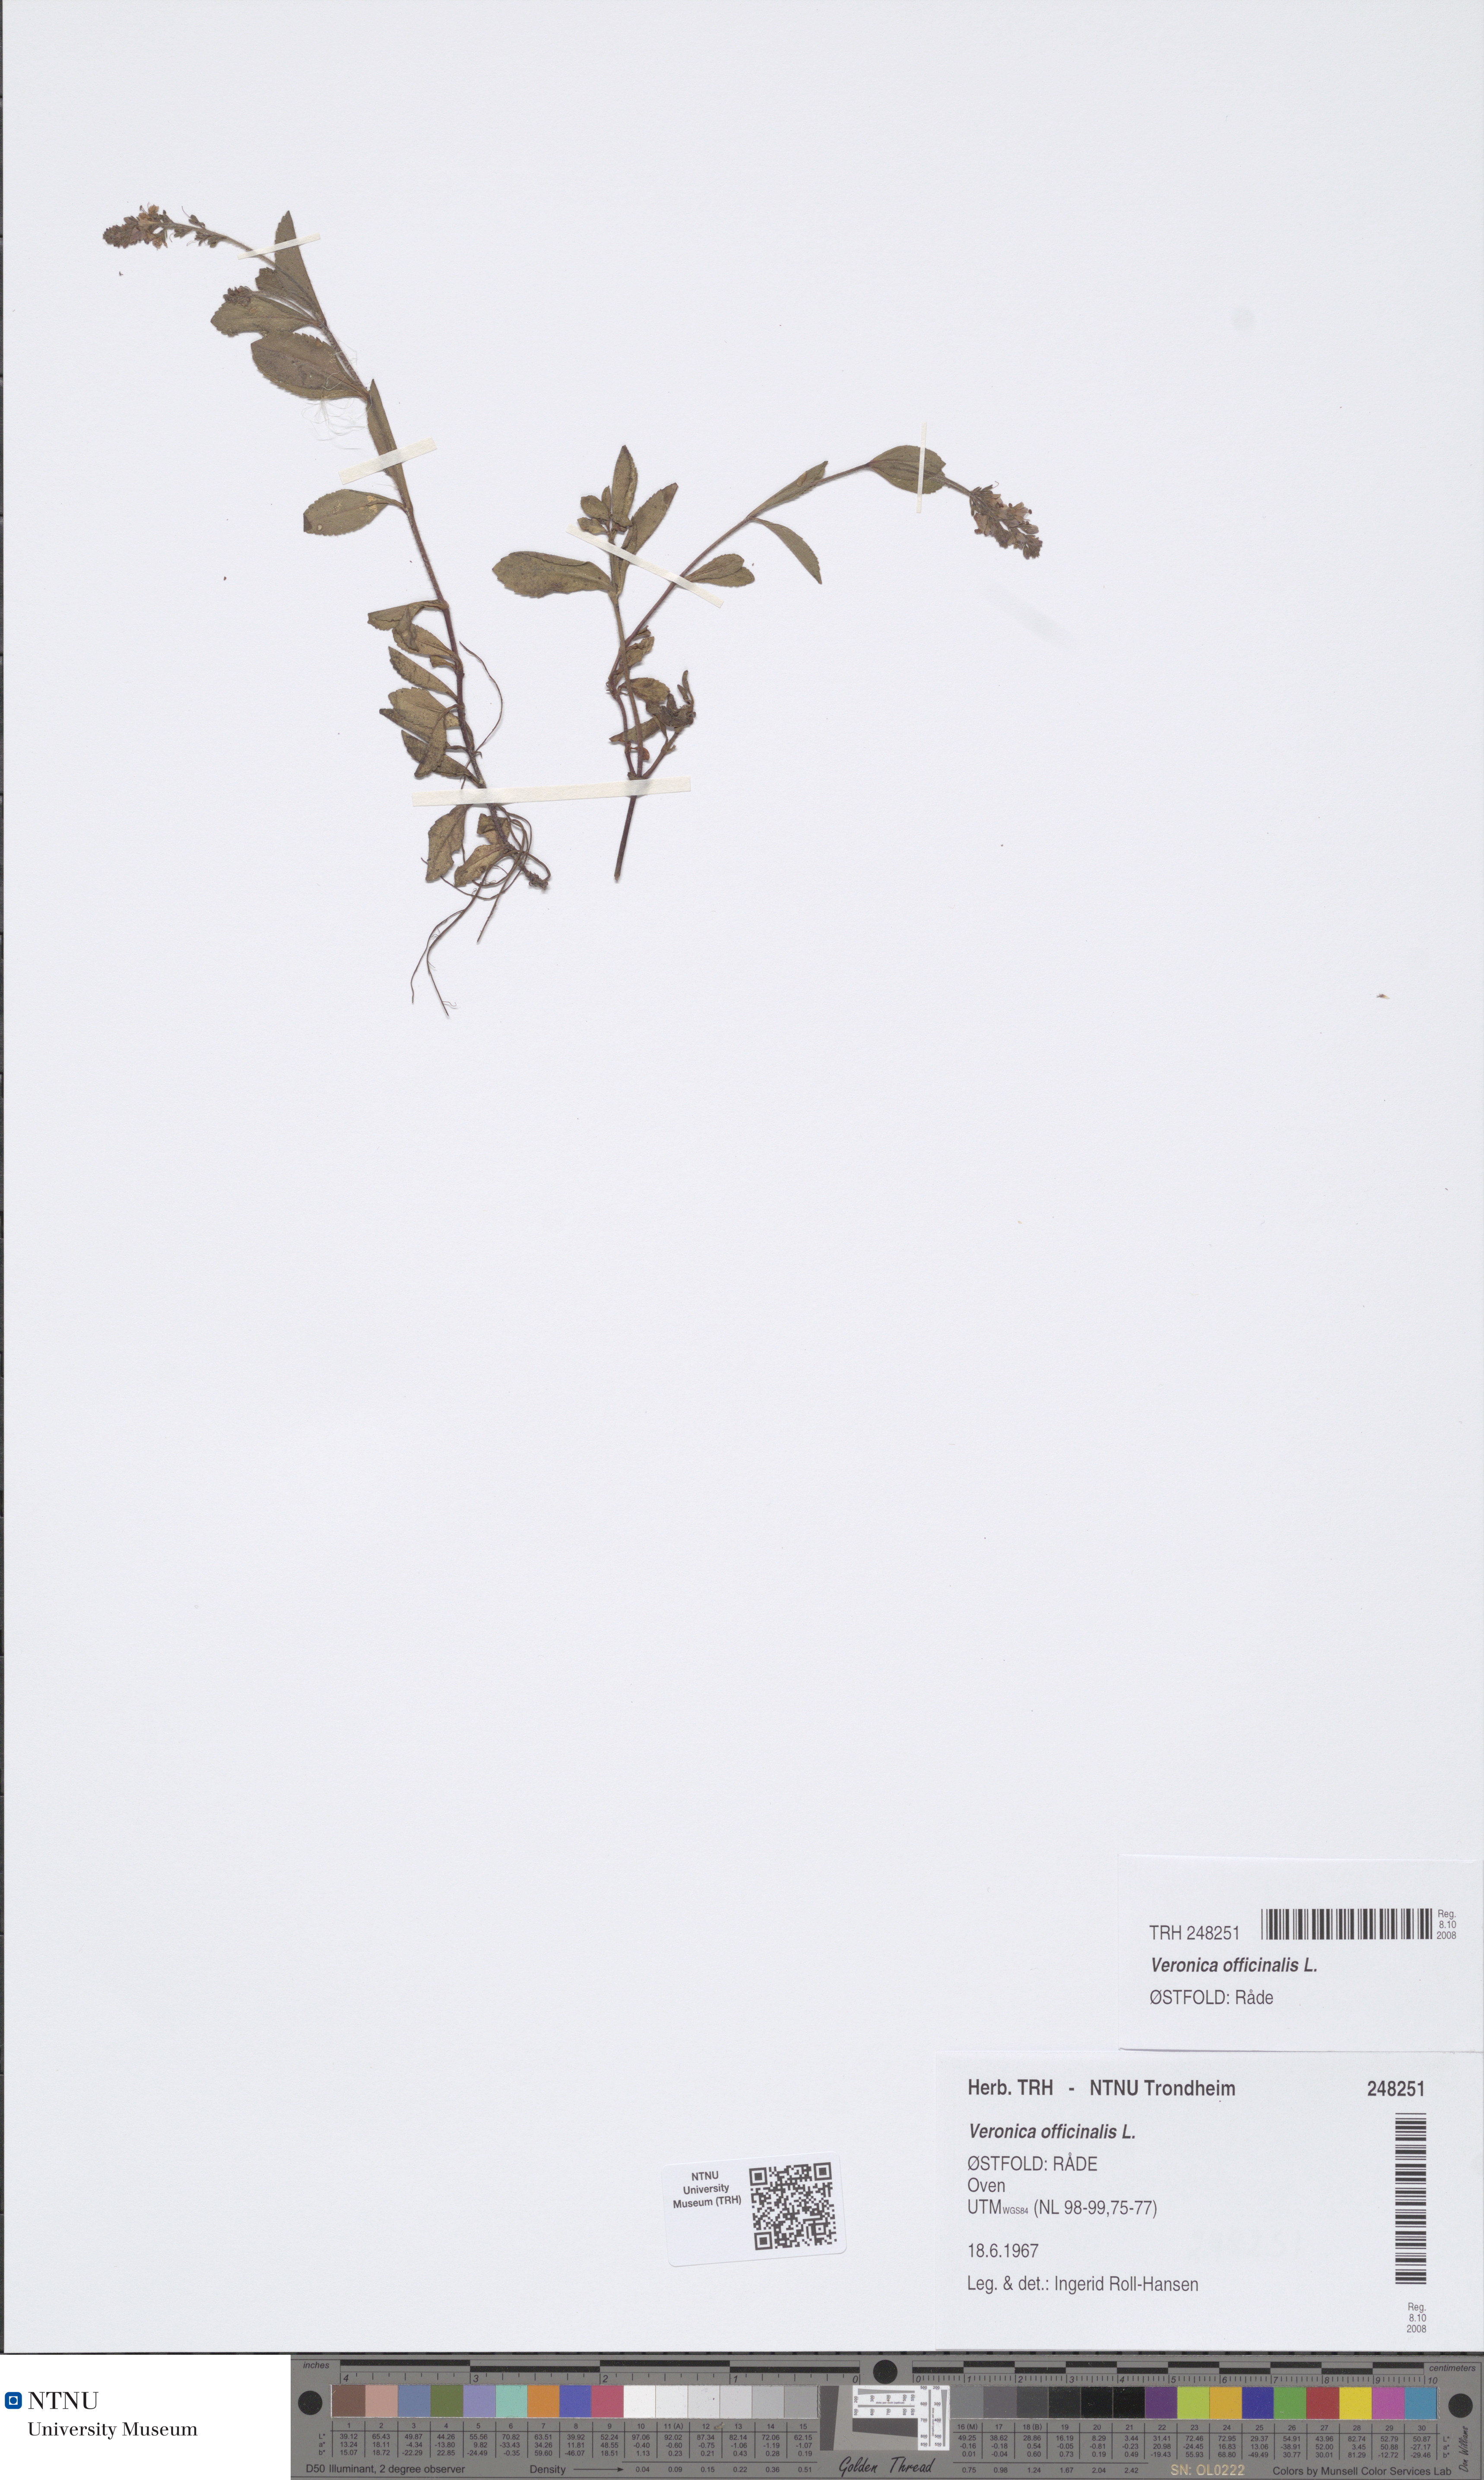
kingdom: Plantae
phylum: Tracheophyta
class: Magnoliopsida
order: Lamiales
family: Plantaginaceae
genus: Veronica
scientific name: Veronica officinalis
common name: Common speedwell
